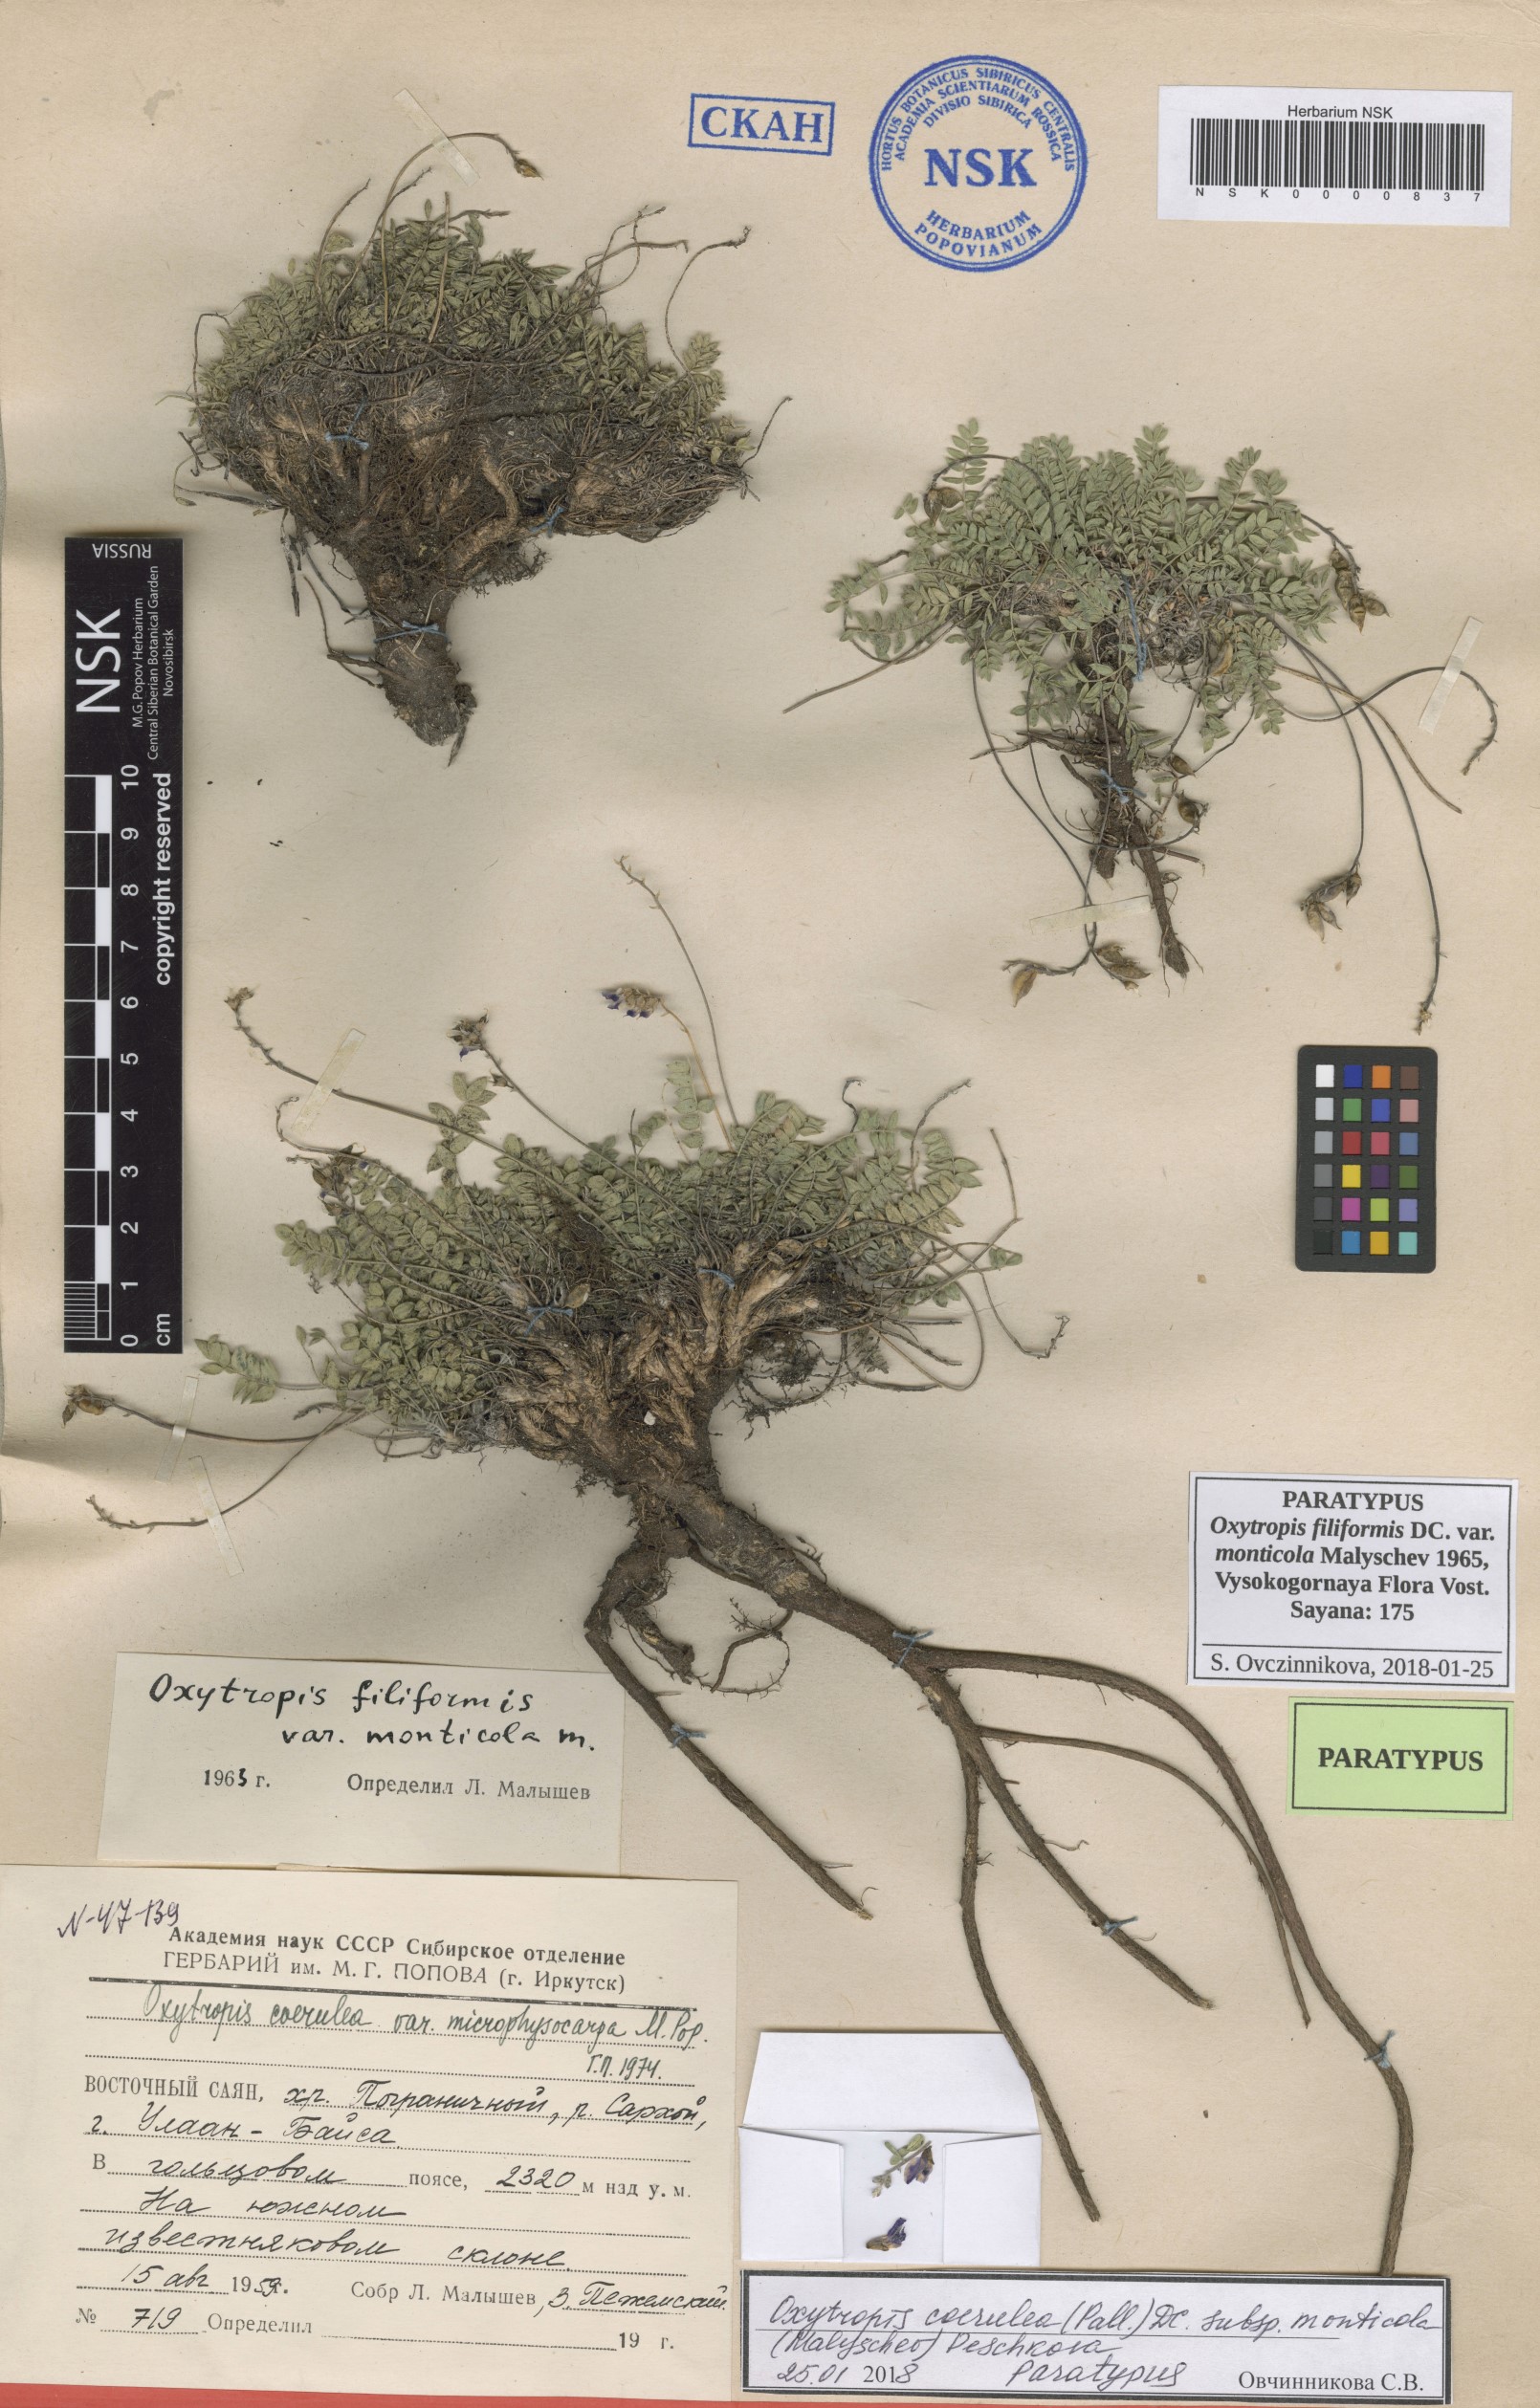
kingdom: Plantae
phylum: Tracheophyta
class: Magnoliopsida
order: Fabales
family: Fabaceae
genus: Oxytropis
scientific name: Oxytropis coerulea
